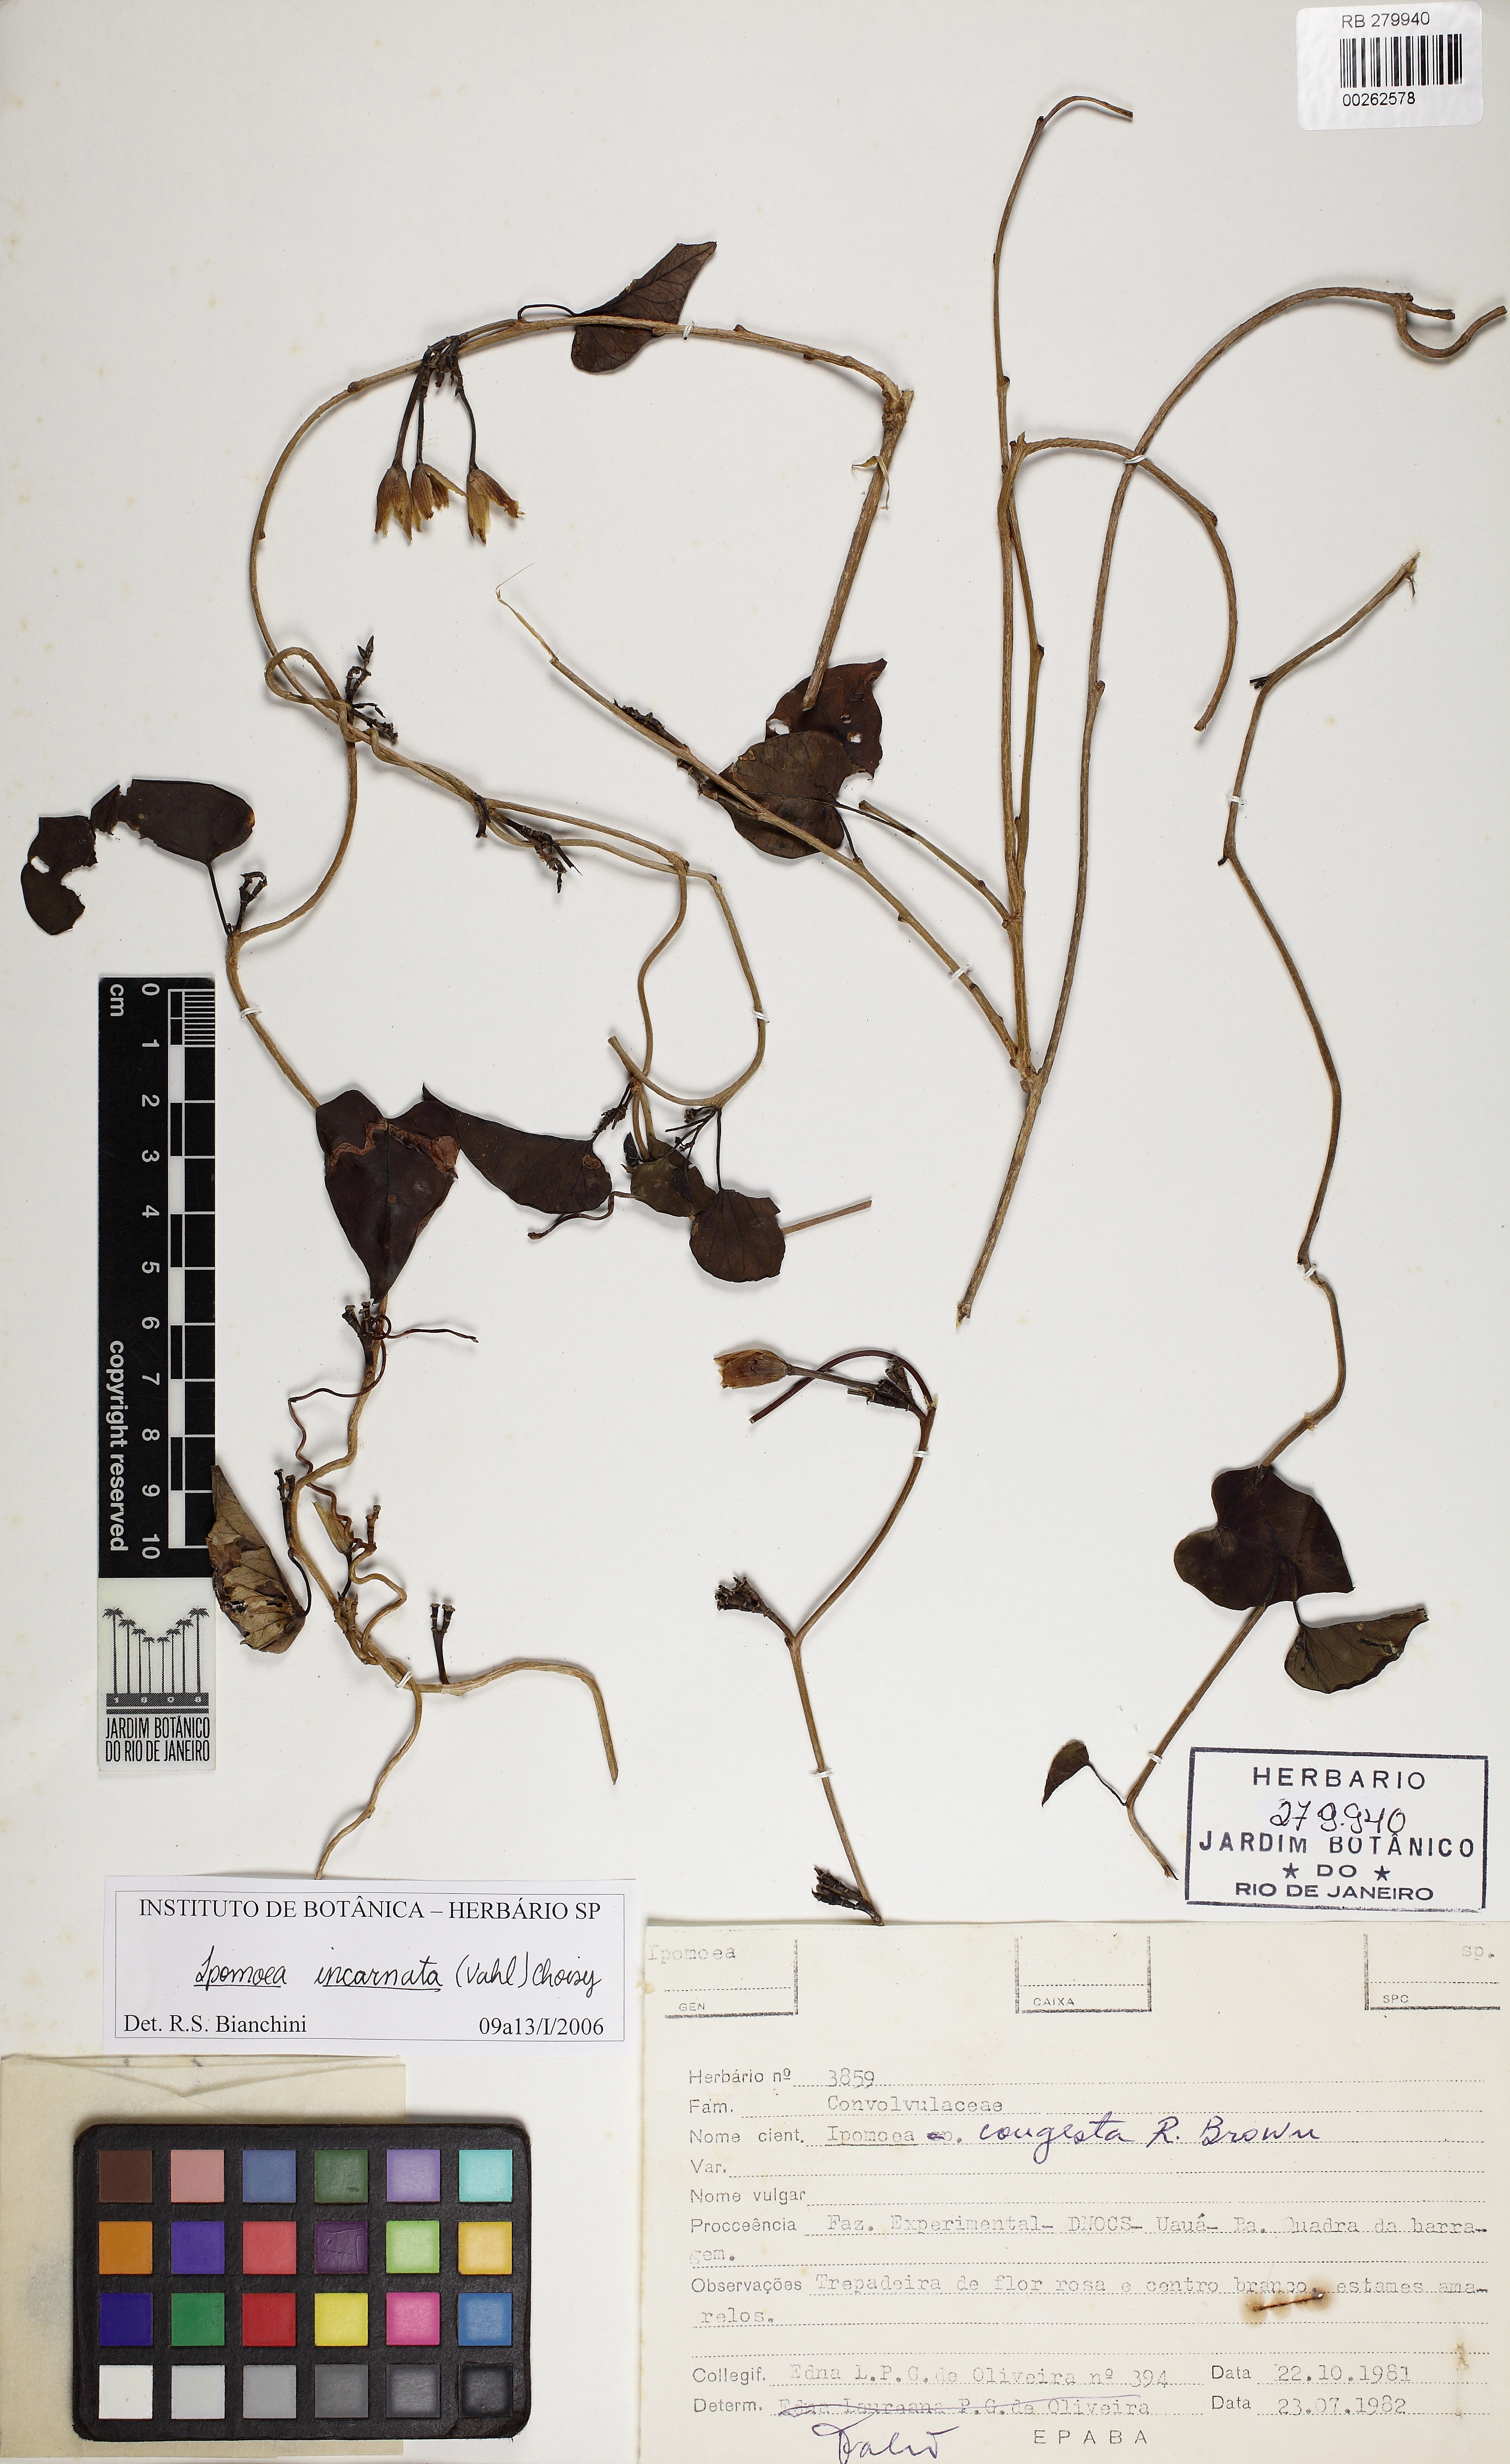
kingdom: Plantae
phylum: Tracheophyta
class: Magnoliopsida
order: Solanales
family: Convolvulaceae
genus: Ipomoea
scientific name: Ipomoea incarnata
